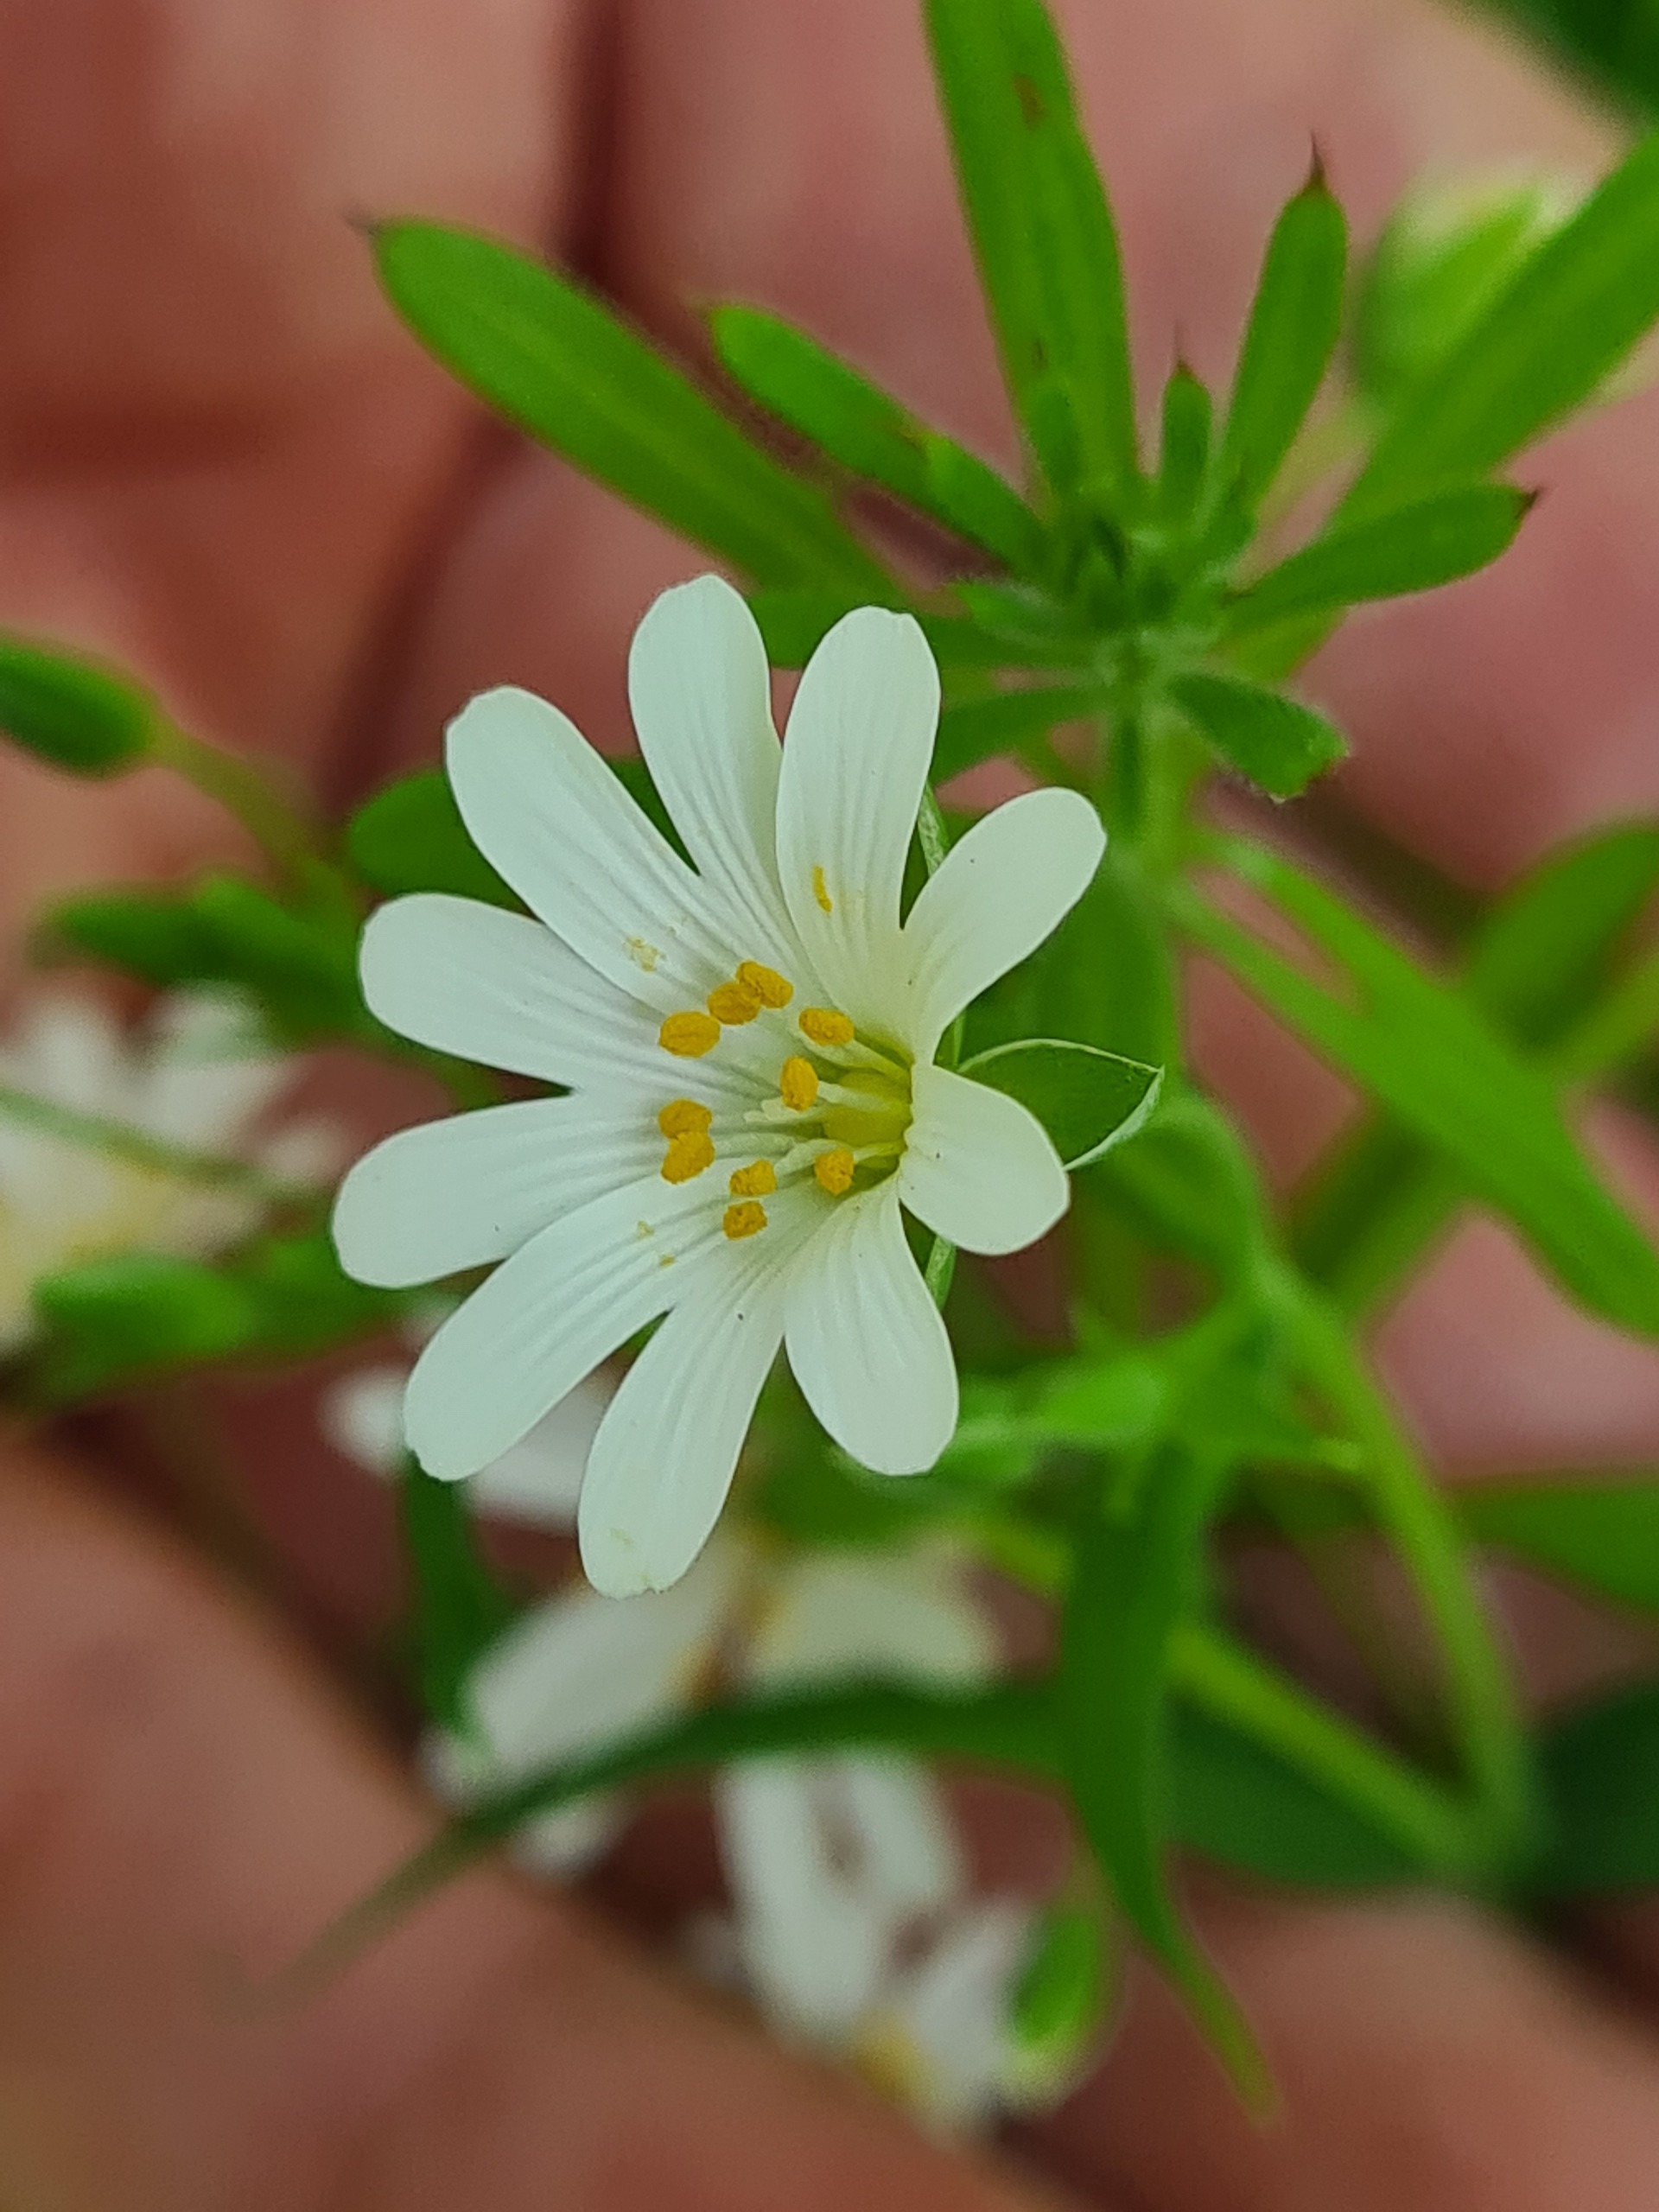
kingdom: Plantae
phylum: Tracheophyta
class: Magnoliopsida
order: Caryophyllales
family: Caryophyllaceae
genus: Rabelera
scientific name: Rabelera holostea
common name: Stor fladstjerne
